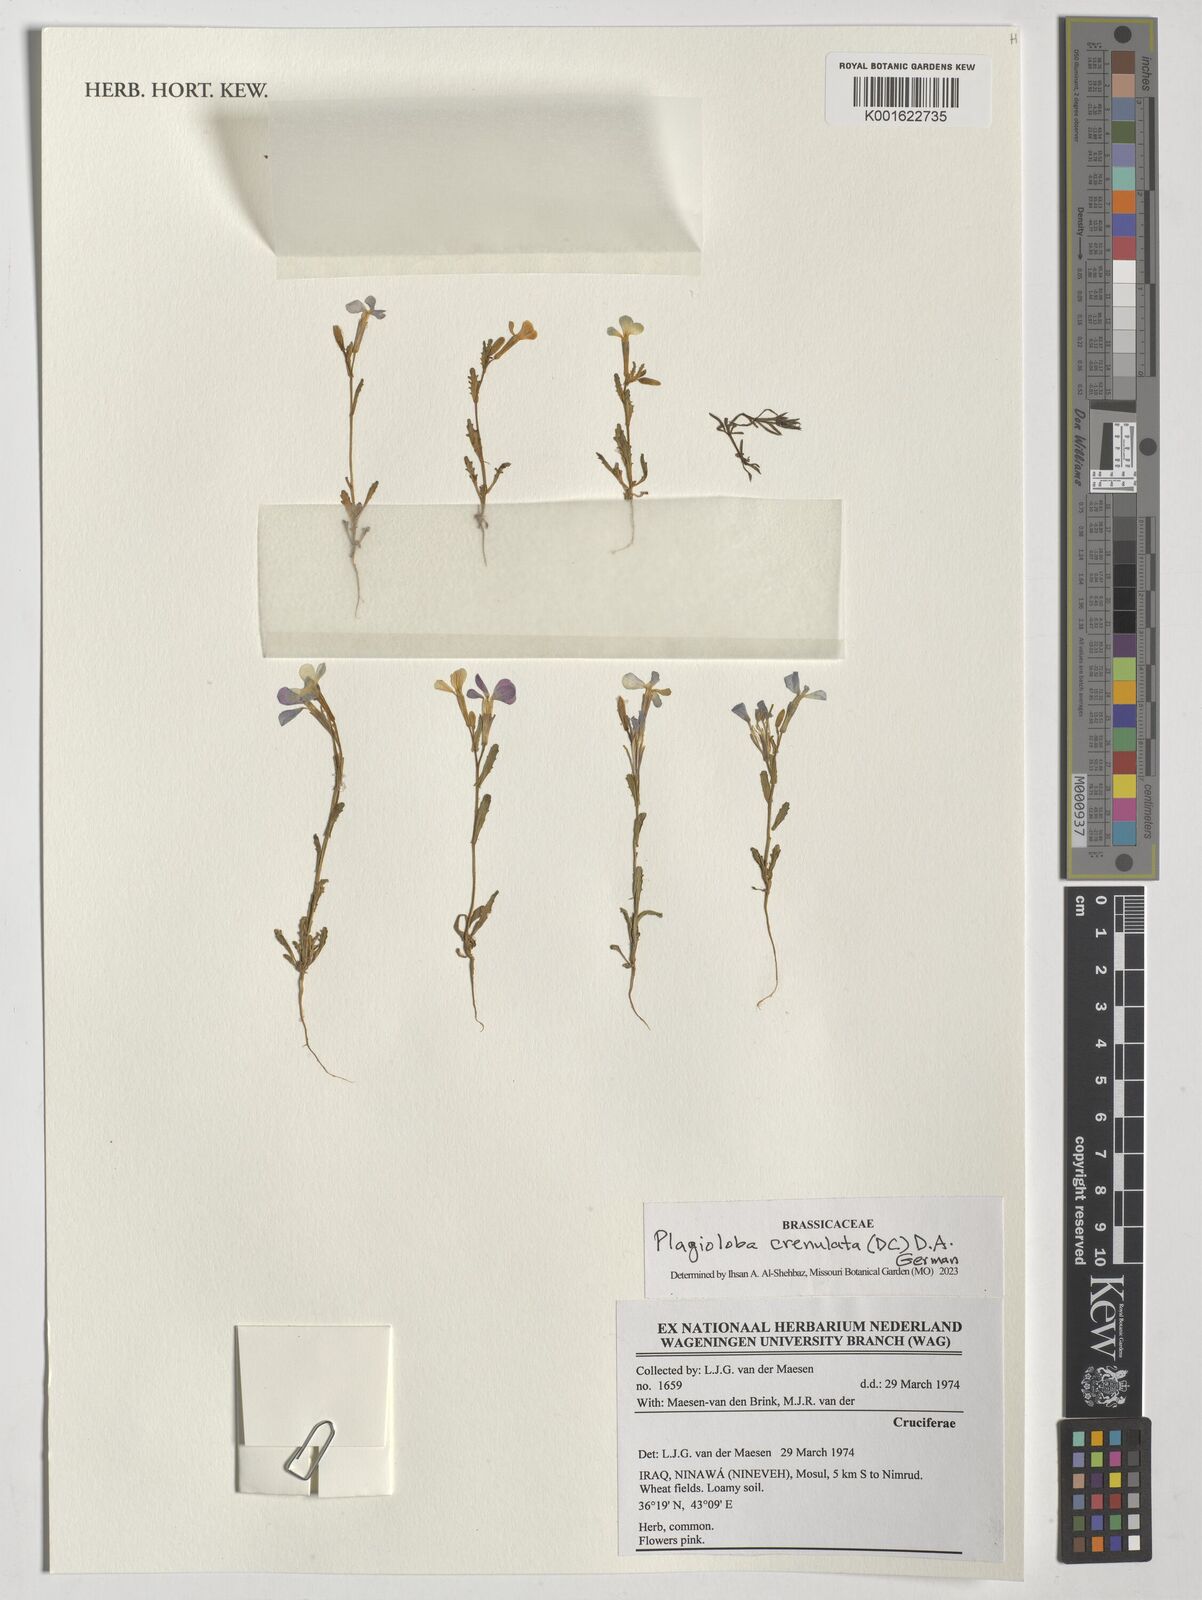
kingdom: Plantae
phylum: Tracheophyta
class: Magnoliopsida
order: Brassicales
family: Brassicaceae
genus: Hesperis
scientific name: Hesperis
